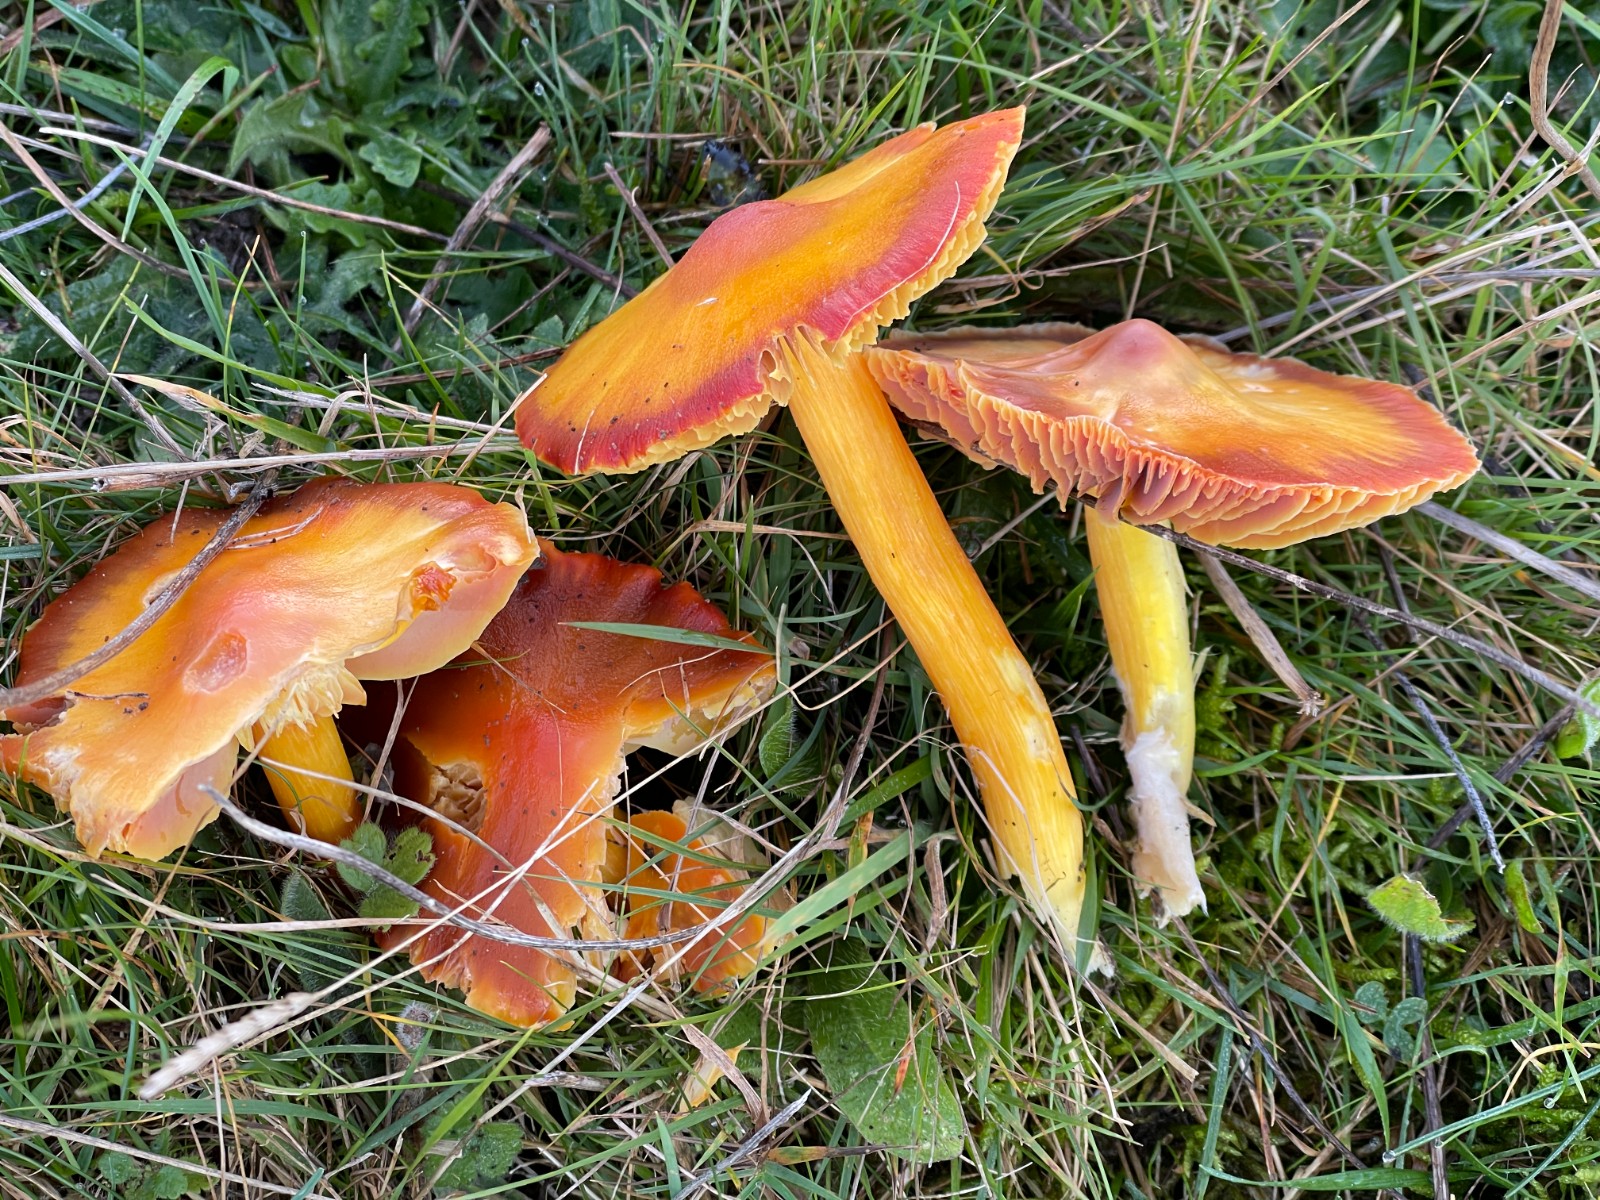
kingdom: Fungi
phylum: Basidiomycota
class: Agaricomycetes
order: Agaricales
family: Hygrophoraceae
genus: Hygrocybe
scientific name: Hygrocybe punicea
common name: skarlagen-vokshat
